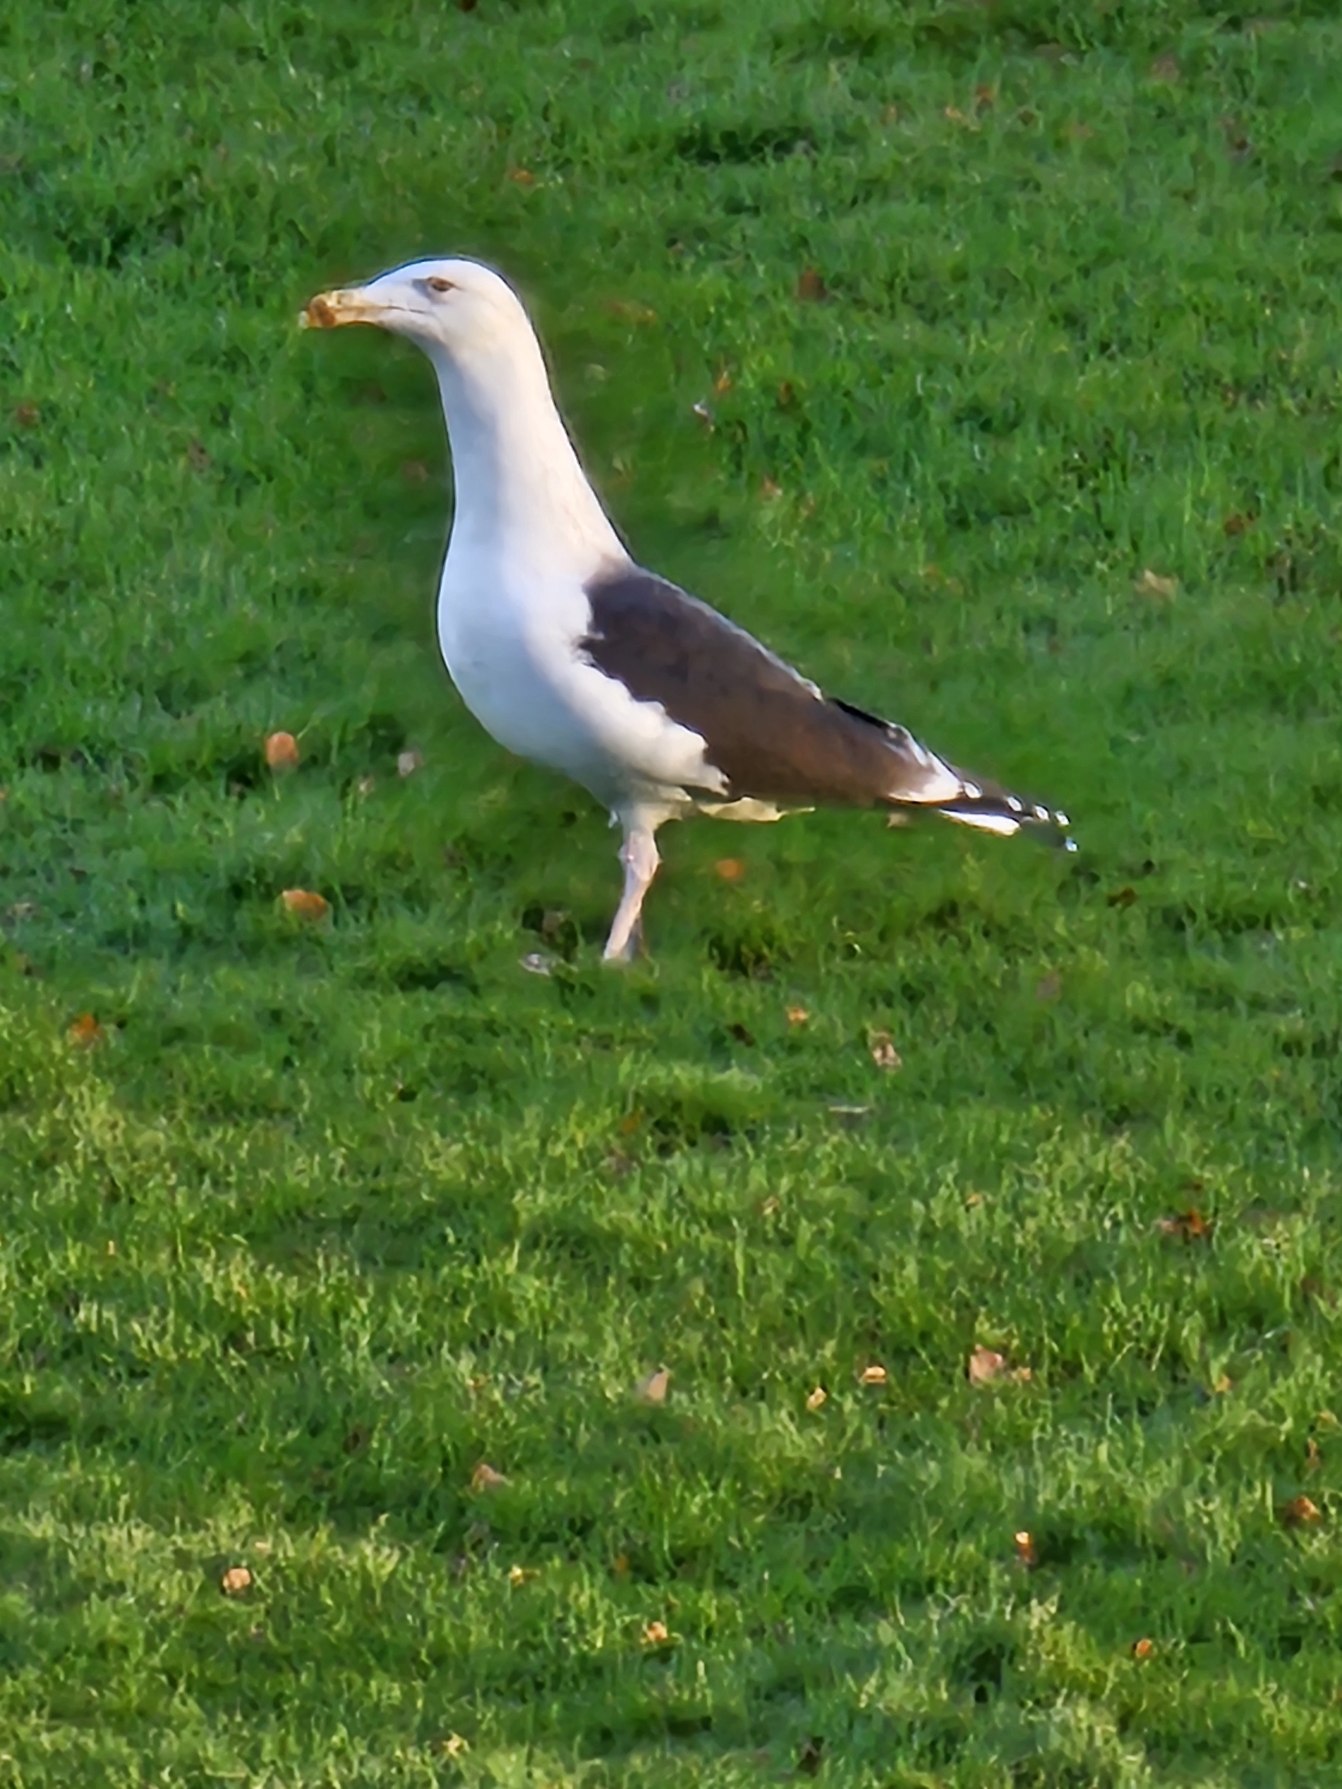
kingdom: Animalia
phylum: Chordata
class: Aves
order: Charadriiformes
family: Laridae
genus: Larus
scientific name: Larus marinus
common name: Svartbag
